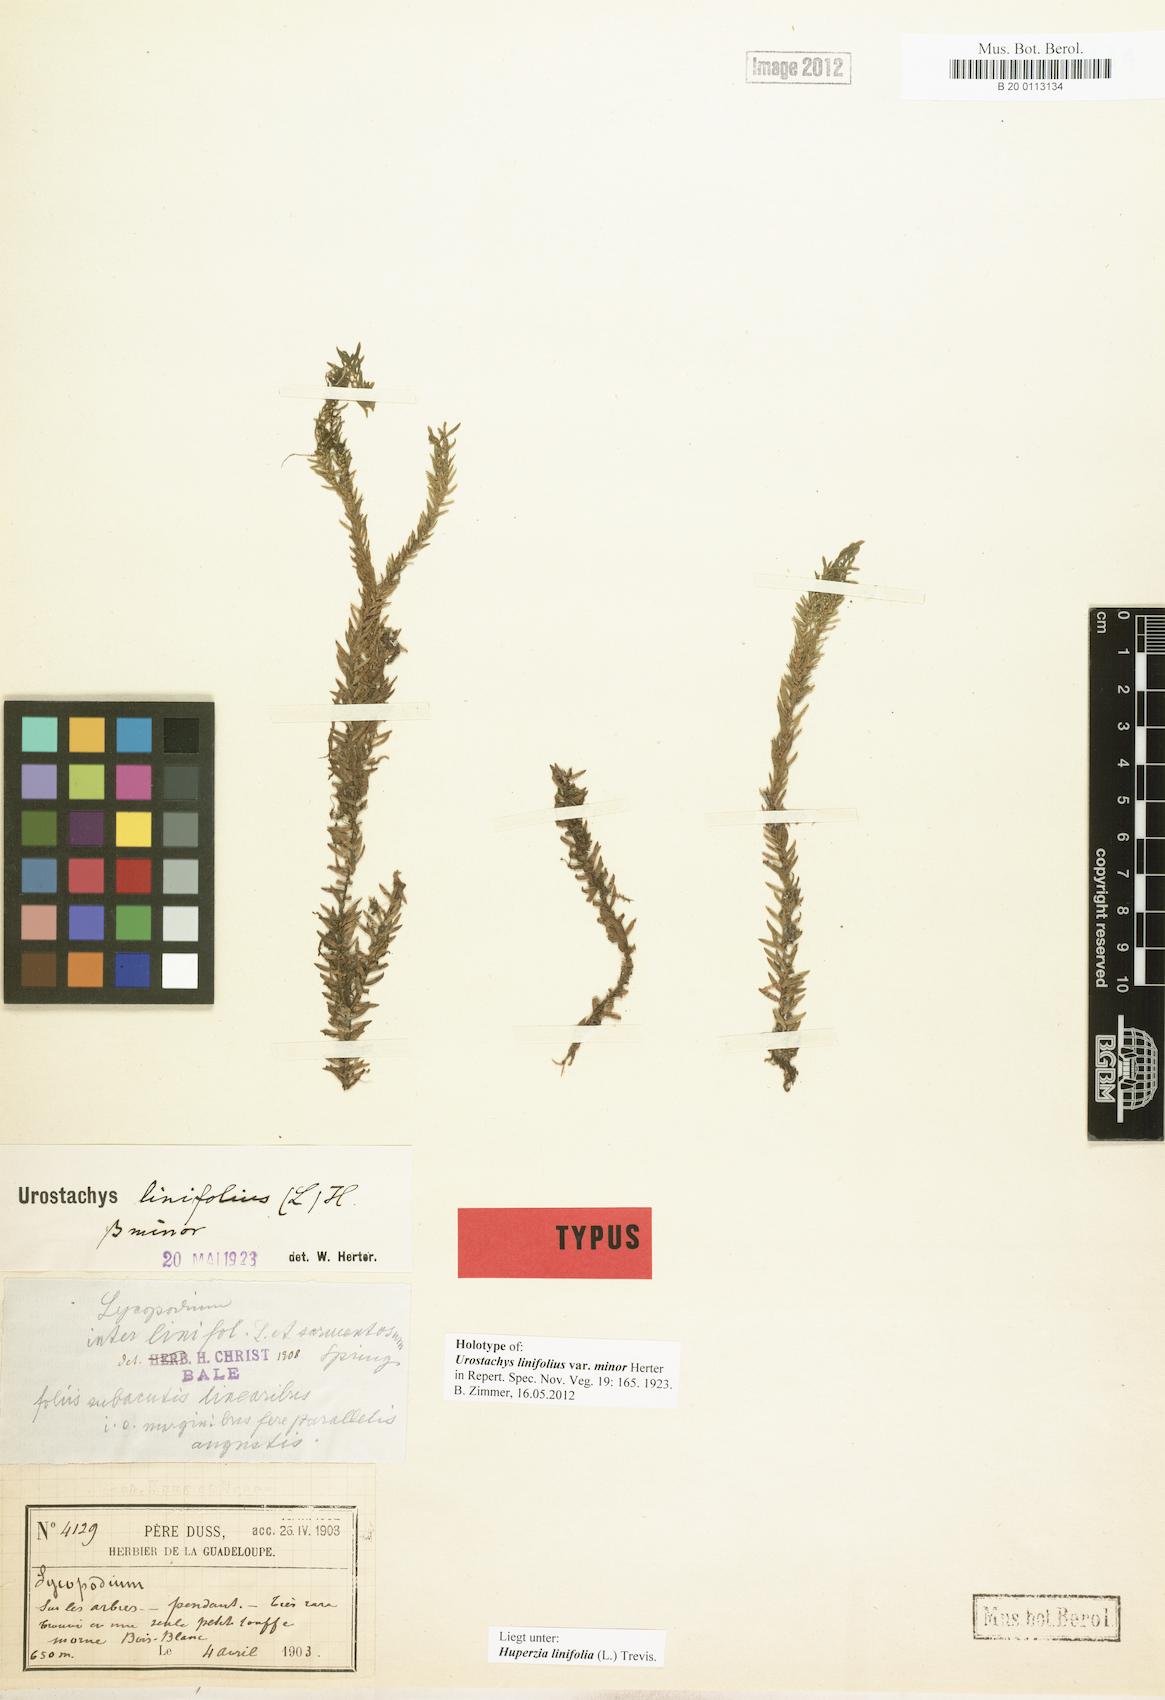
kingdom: Plantae
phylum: Tracheophyta
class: Lycopodiopsida
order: Lycopodiales
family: Lycopodiaceae
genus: Phlegmariurus
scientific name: Phlegmariurus linifolius
